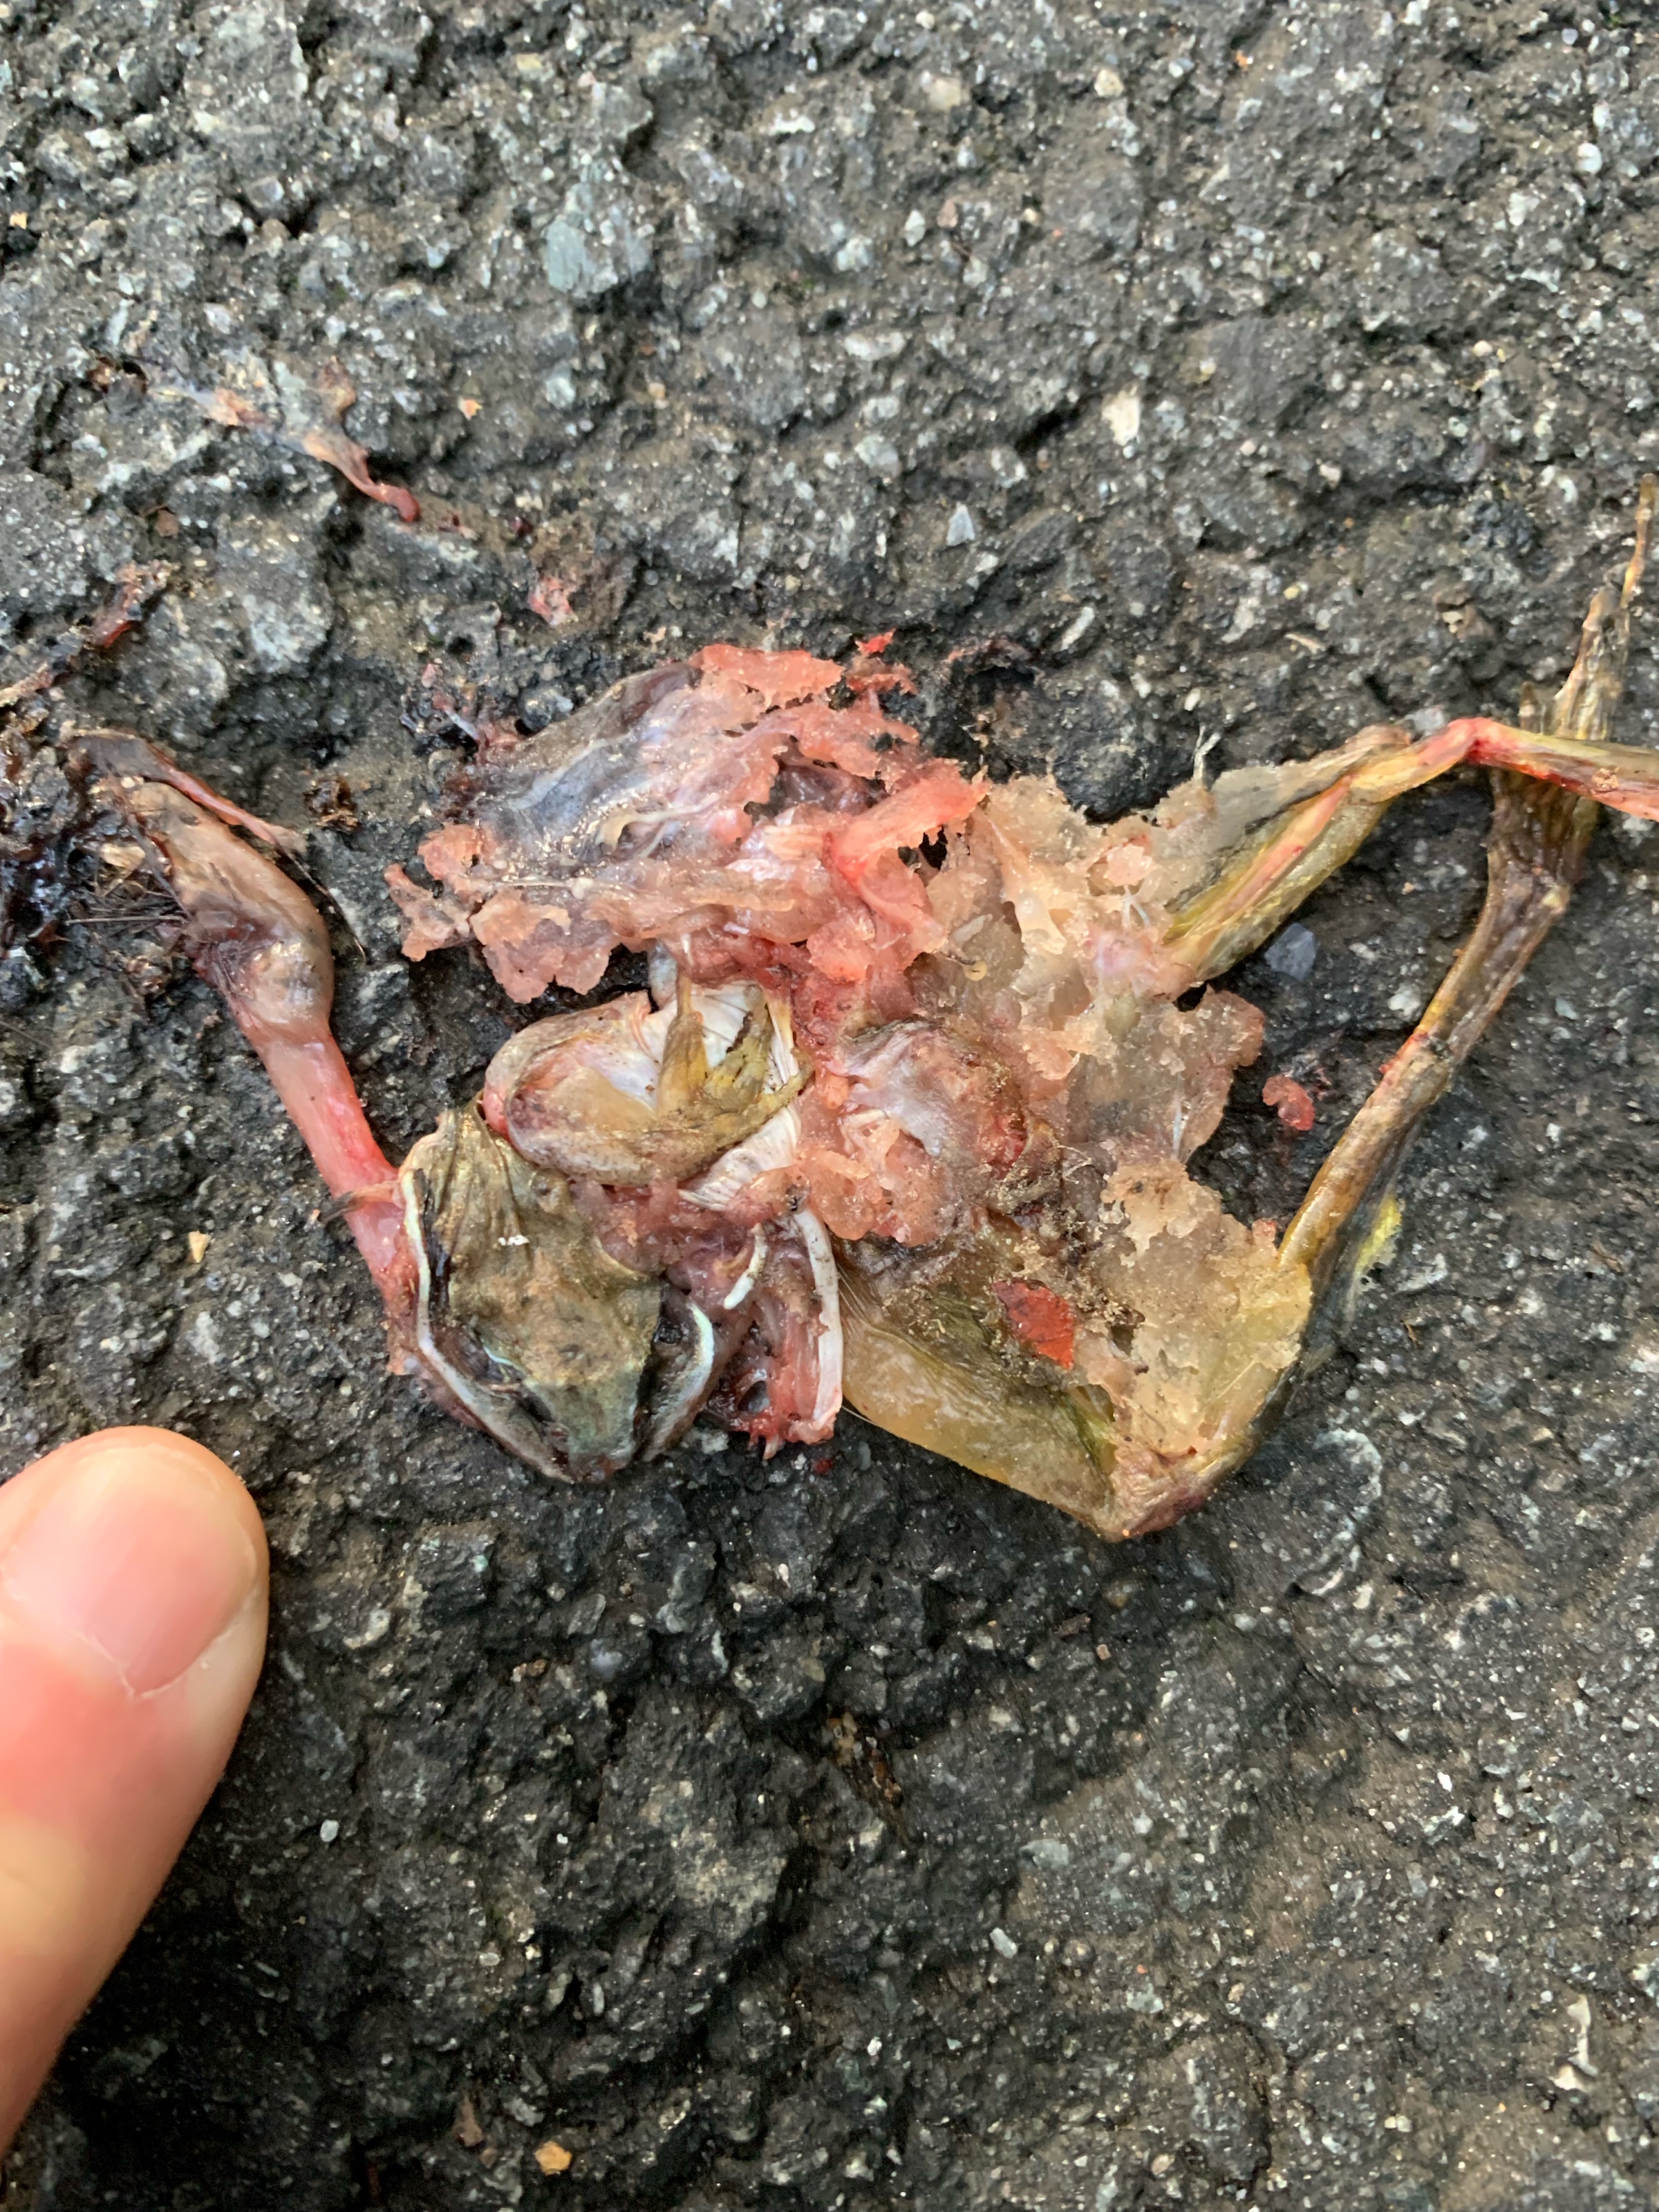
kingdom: Animalia
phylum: Chordata
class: Amphibia
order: Anura
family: Ranidae
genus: Lithobates
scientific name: Lithobates sylvaticus
